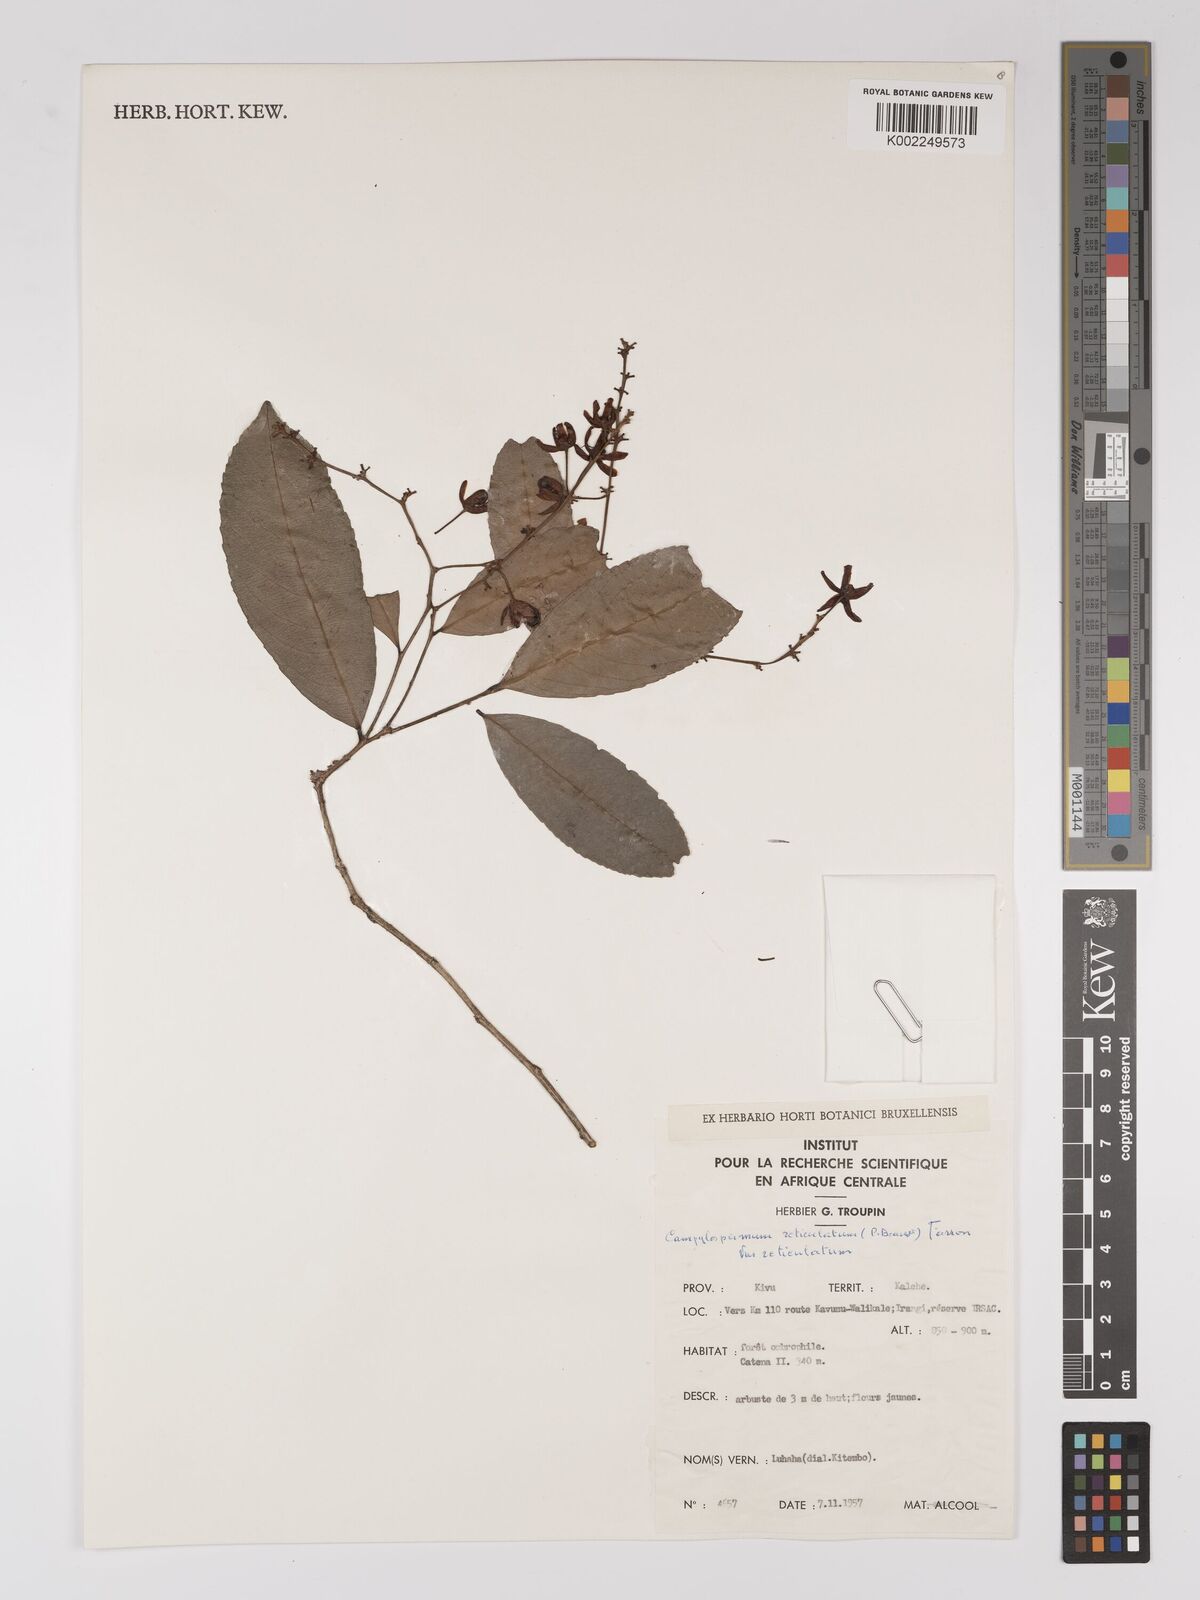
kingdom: Plantae
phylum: Tracheophyta
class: Magnoliopsida
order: Malpighiales
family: Ochnaceae
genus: Campylospermum
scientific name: Campylospermum reticulatum
